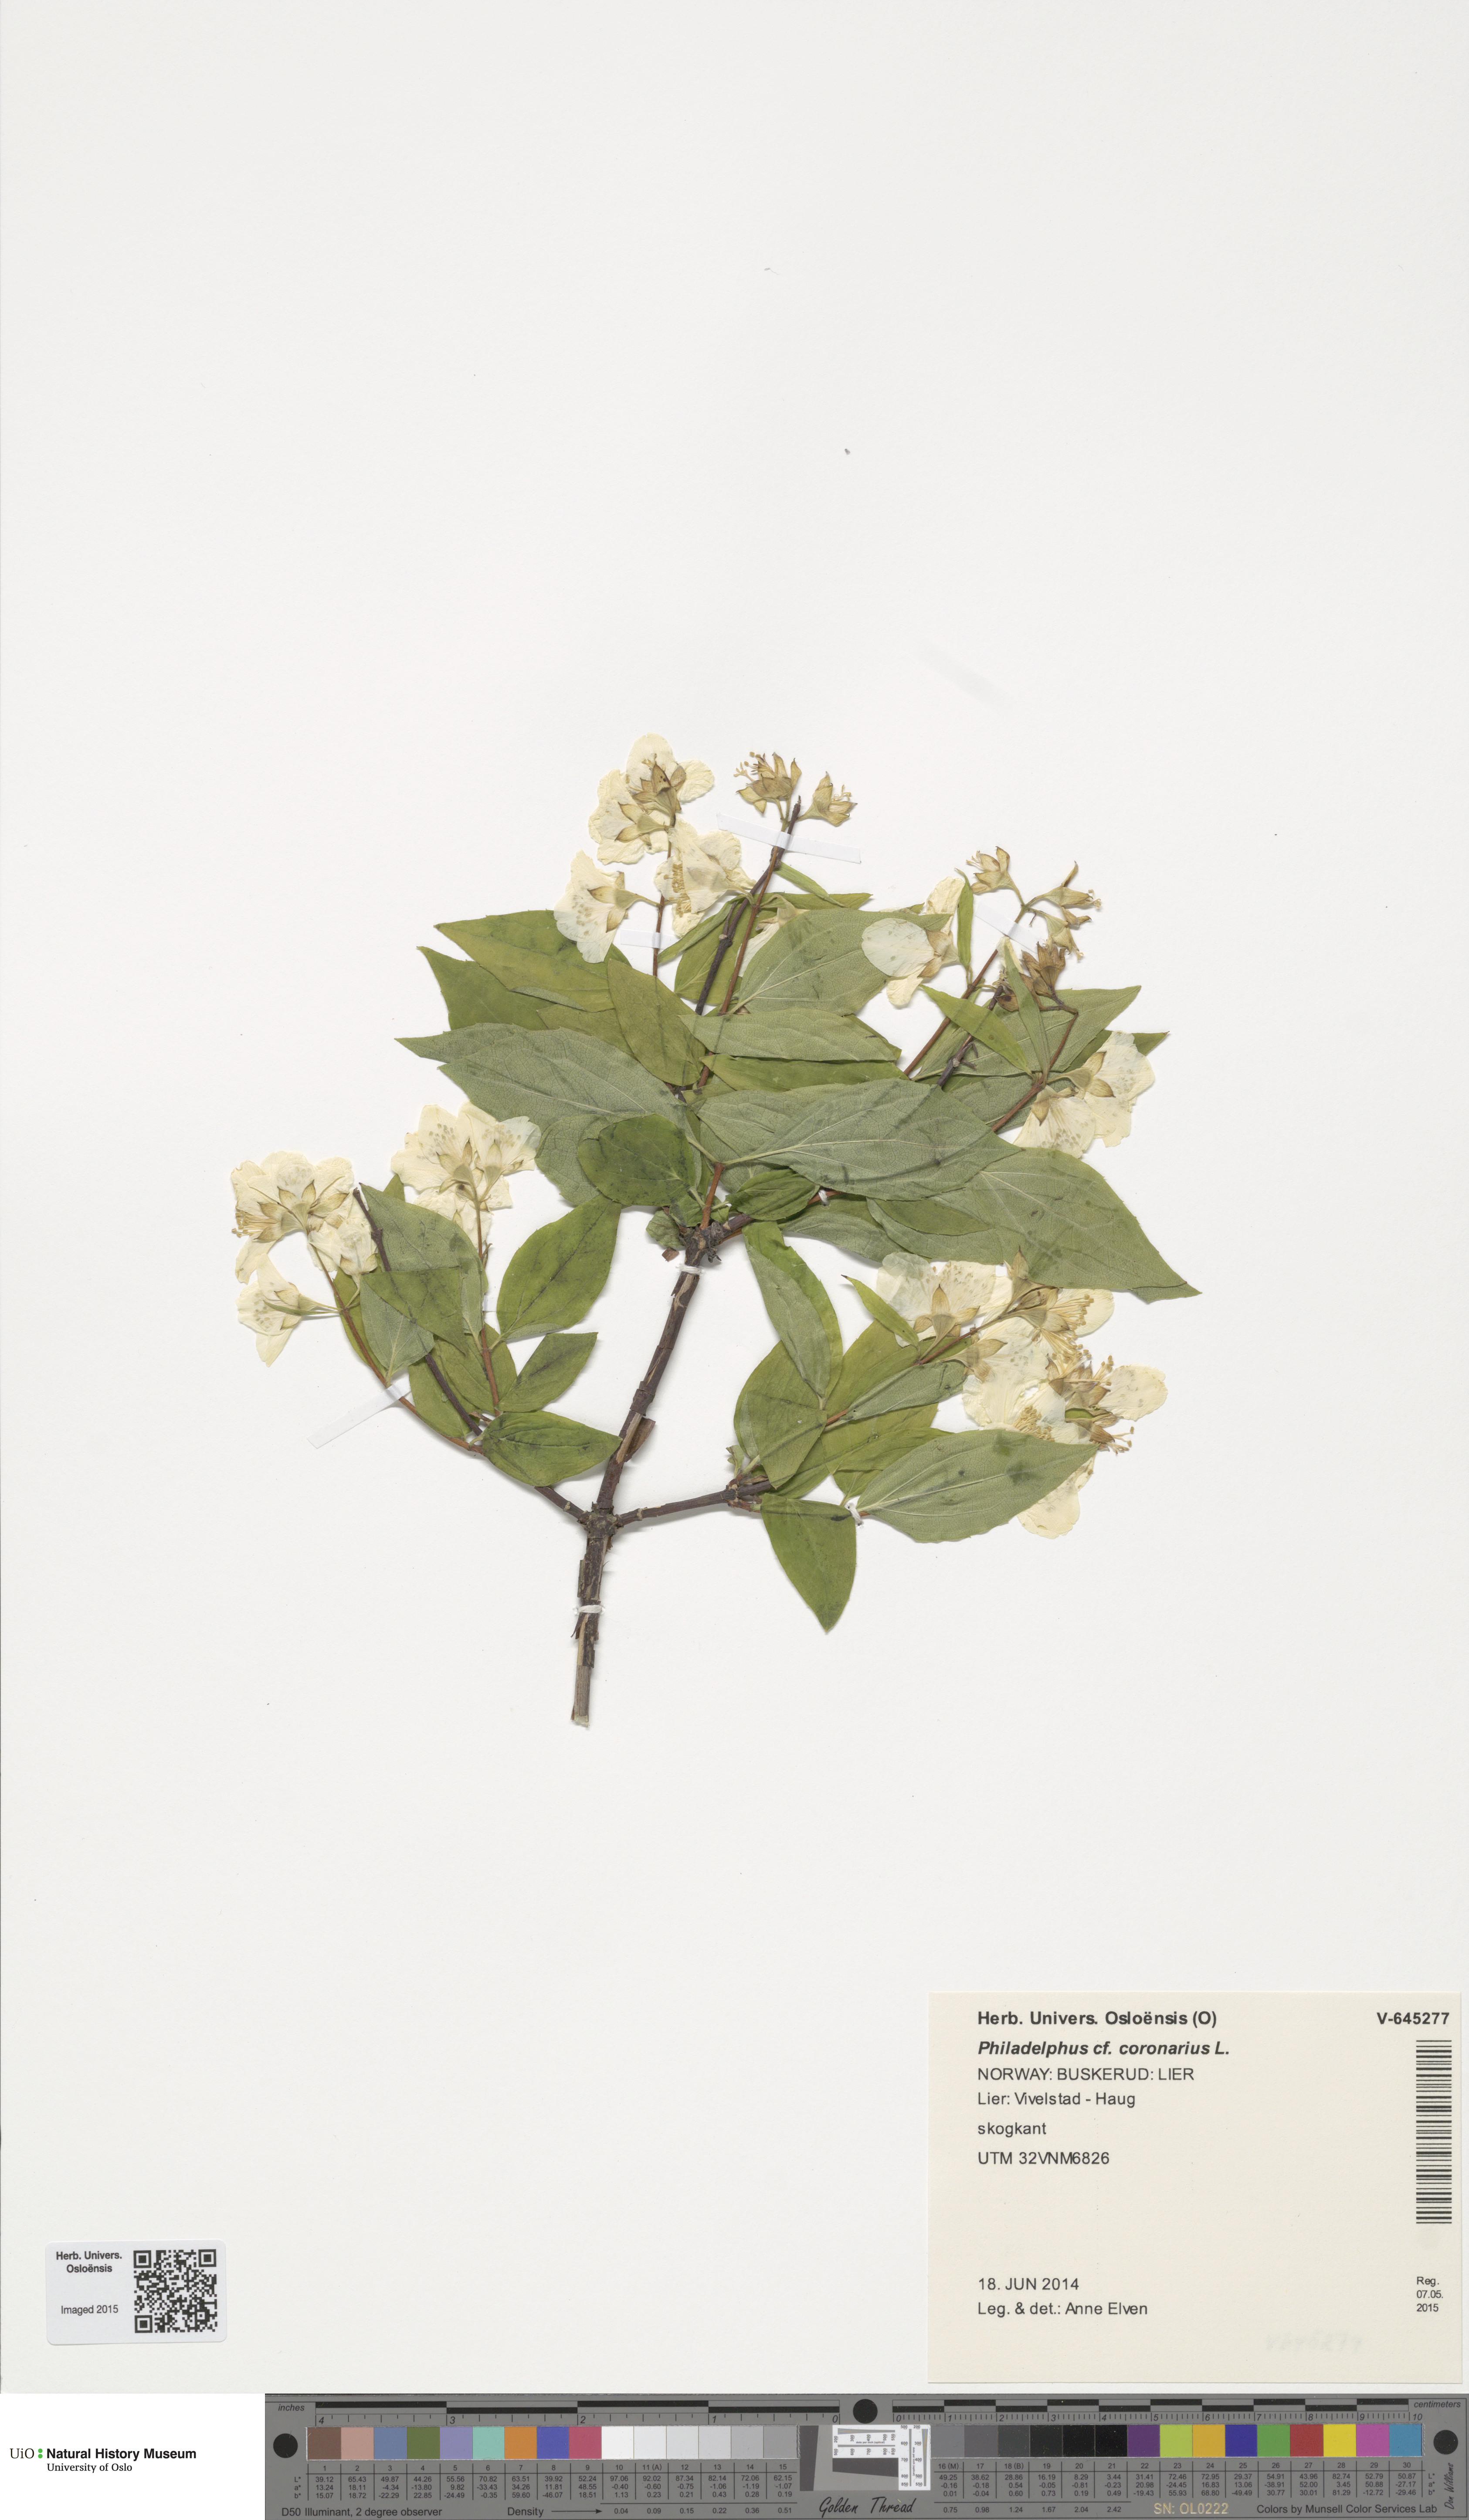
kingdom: Plantae
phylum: Tracheophyta
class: Magnoliopsida
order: Cornales
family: Hydrangeaceae
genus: Philadelphus
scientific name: Philadelphus coronarius
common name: Mock orange
